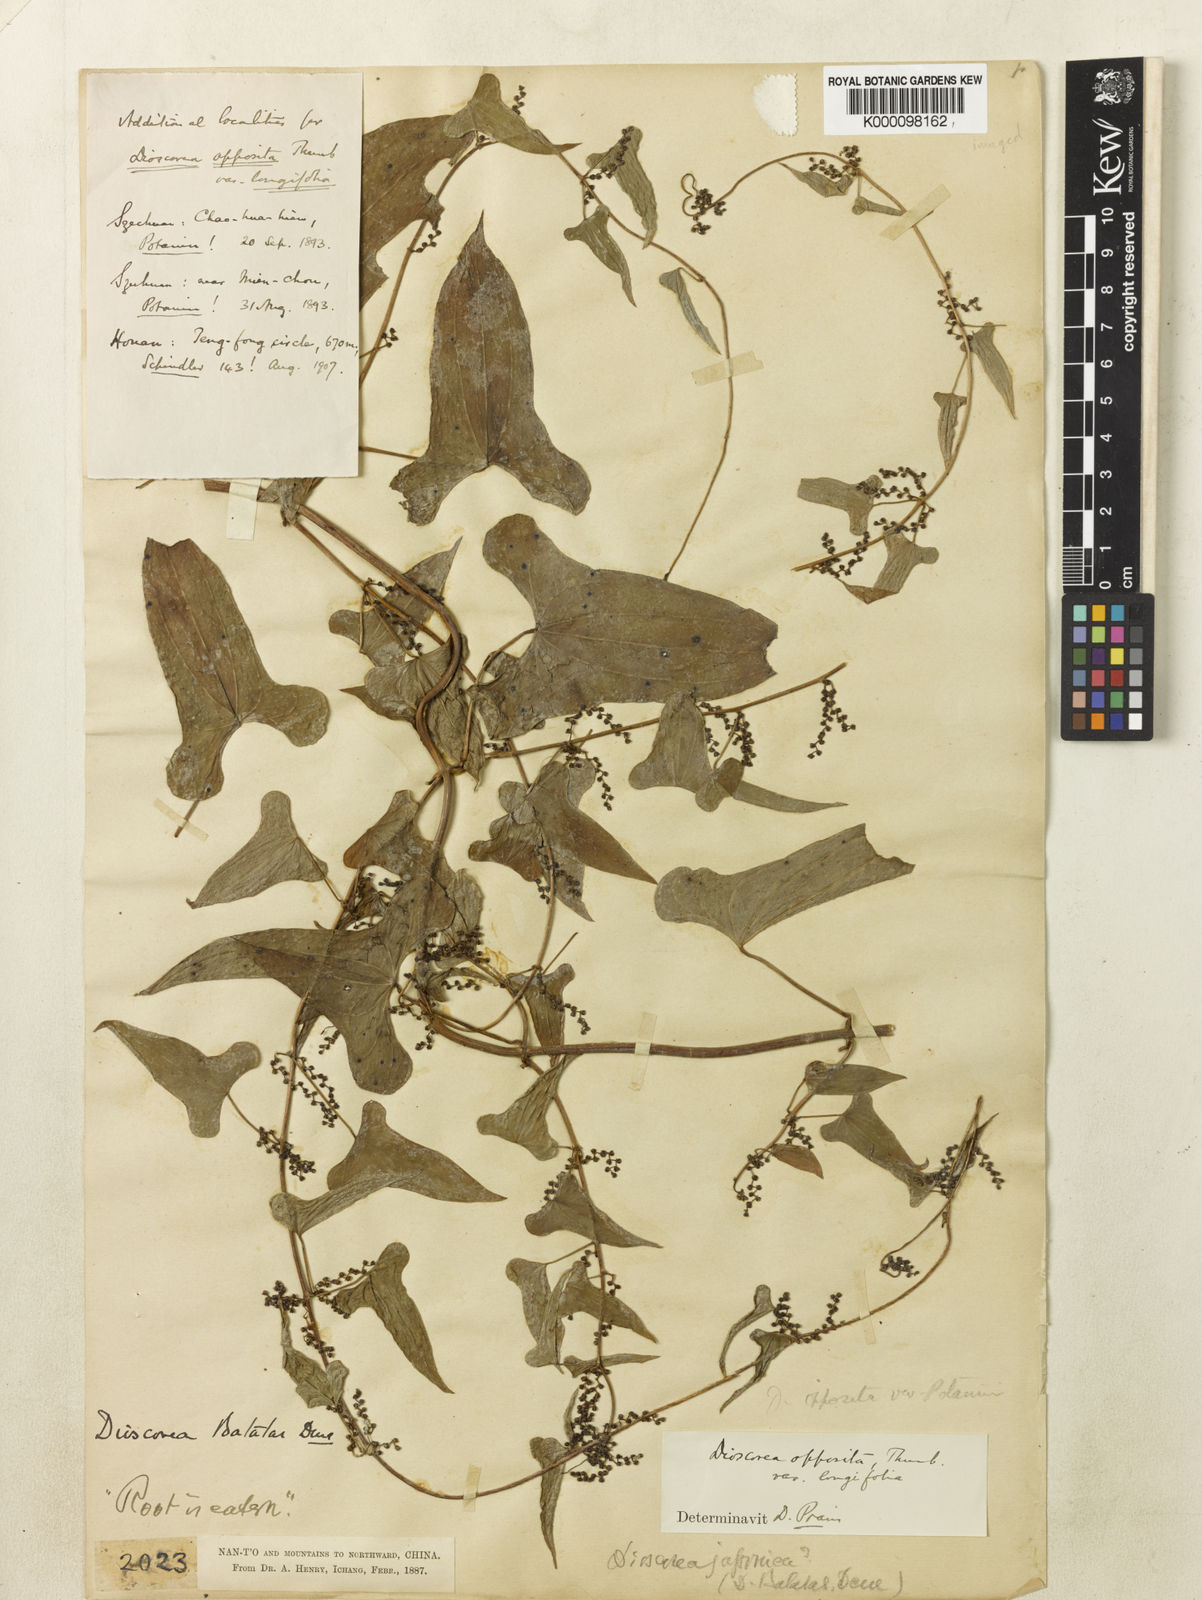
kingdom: Plantae
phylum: Tracheophyta
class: Liliopsida
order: Dioscoreales
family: Dioscoreaceae
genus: Dioscorea
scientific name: Dioscorea oppositifolia
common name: Chinese yam
